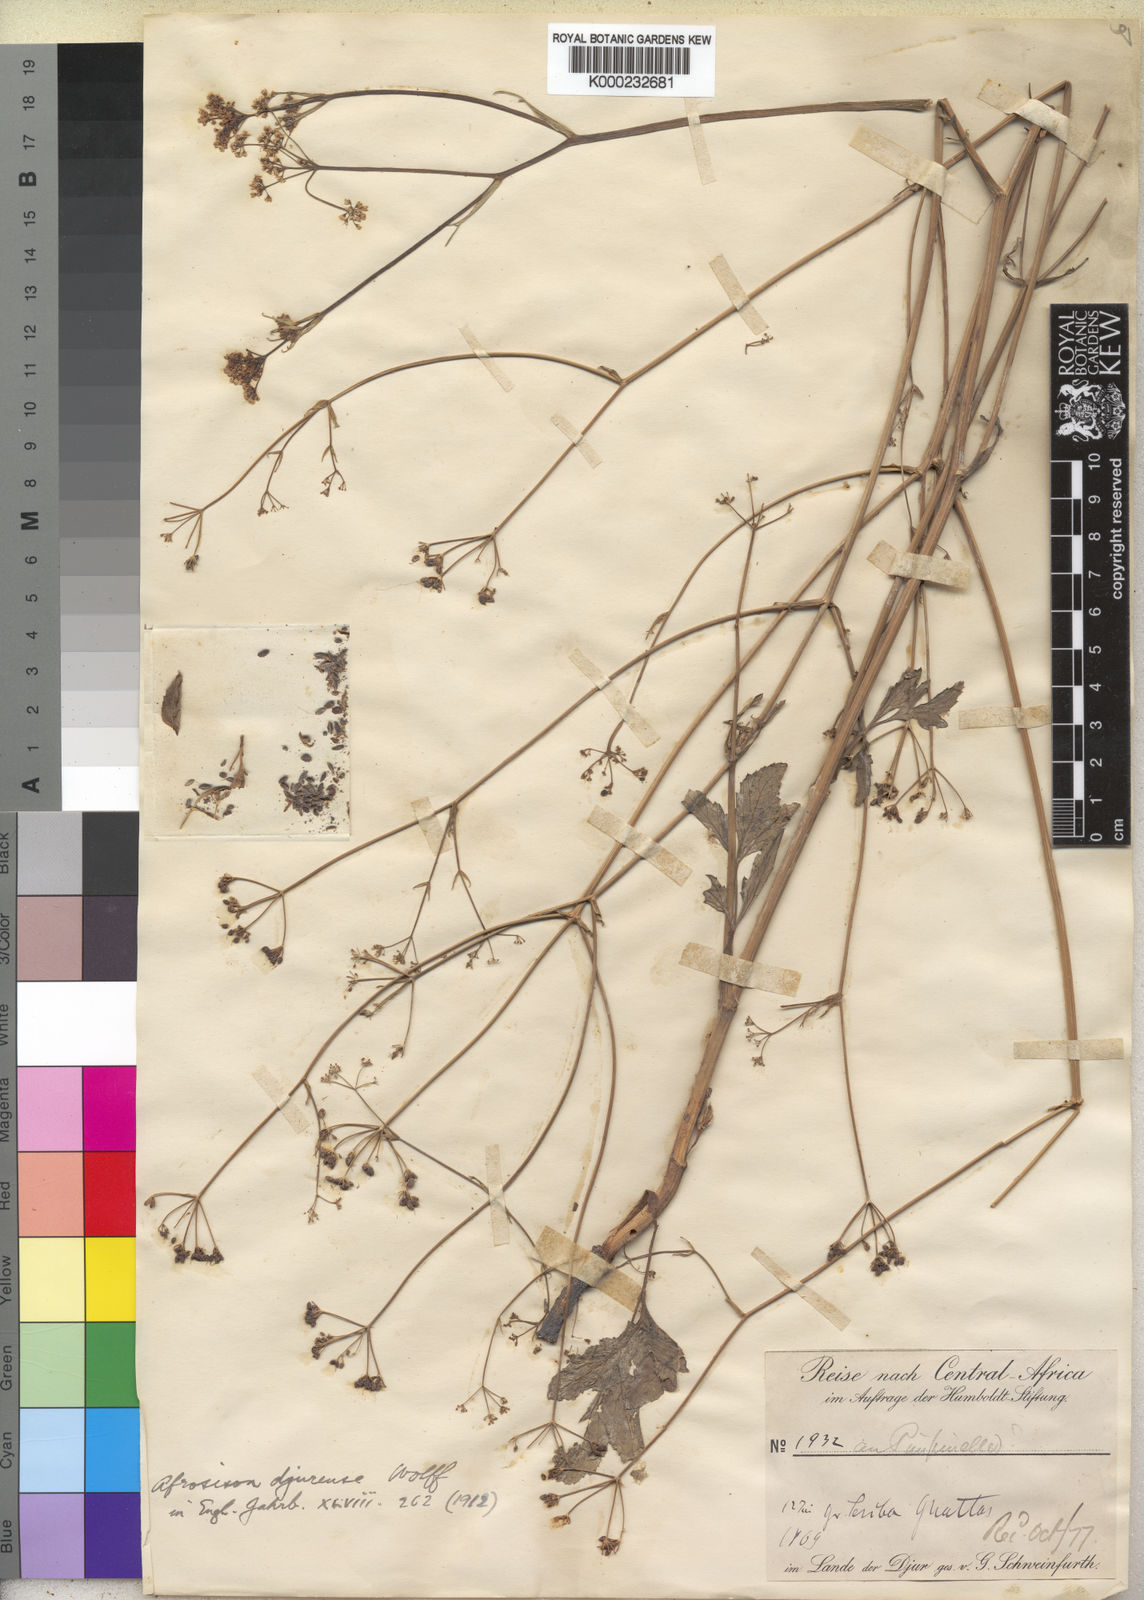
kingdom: Plantae
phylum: Tracheophyta
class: Magnoliopsida
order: Apiales
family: Apiaceae
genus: Pimpinella
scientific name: Pimpinella buchananii
